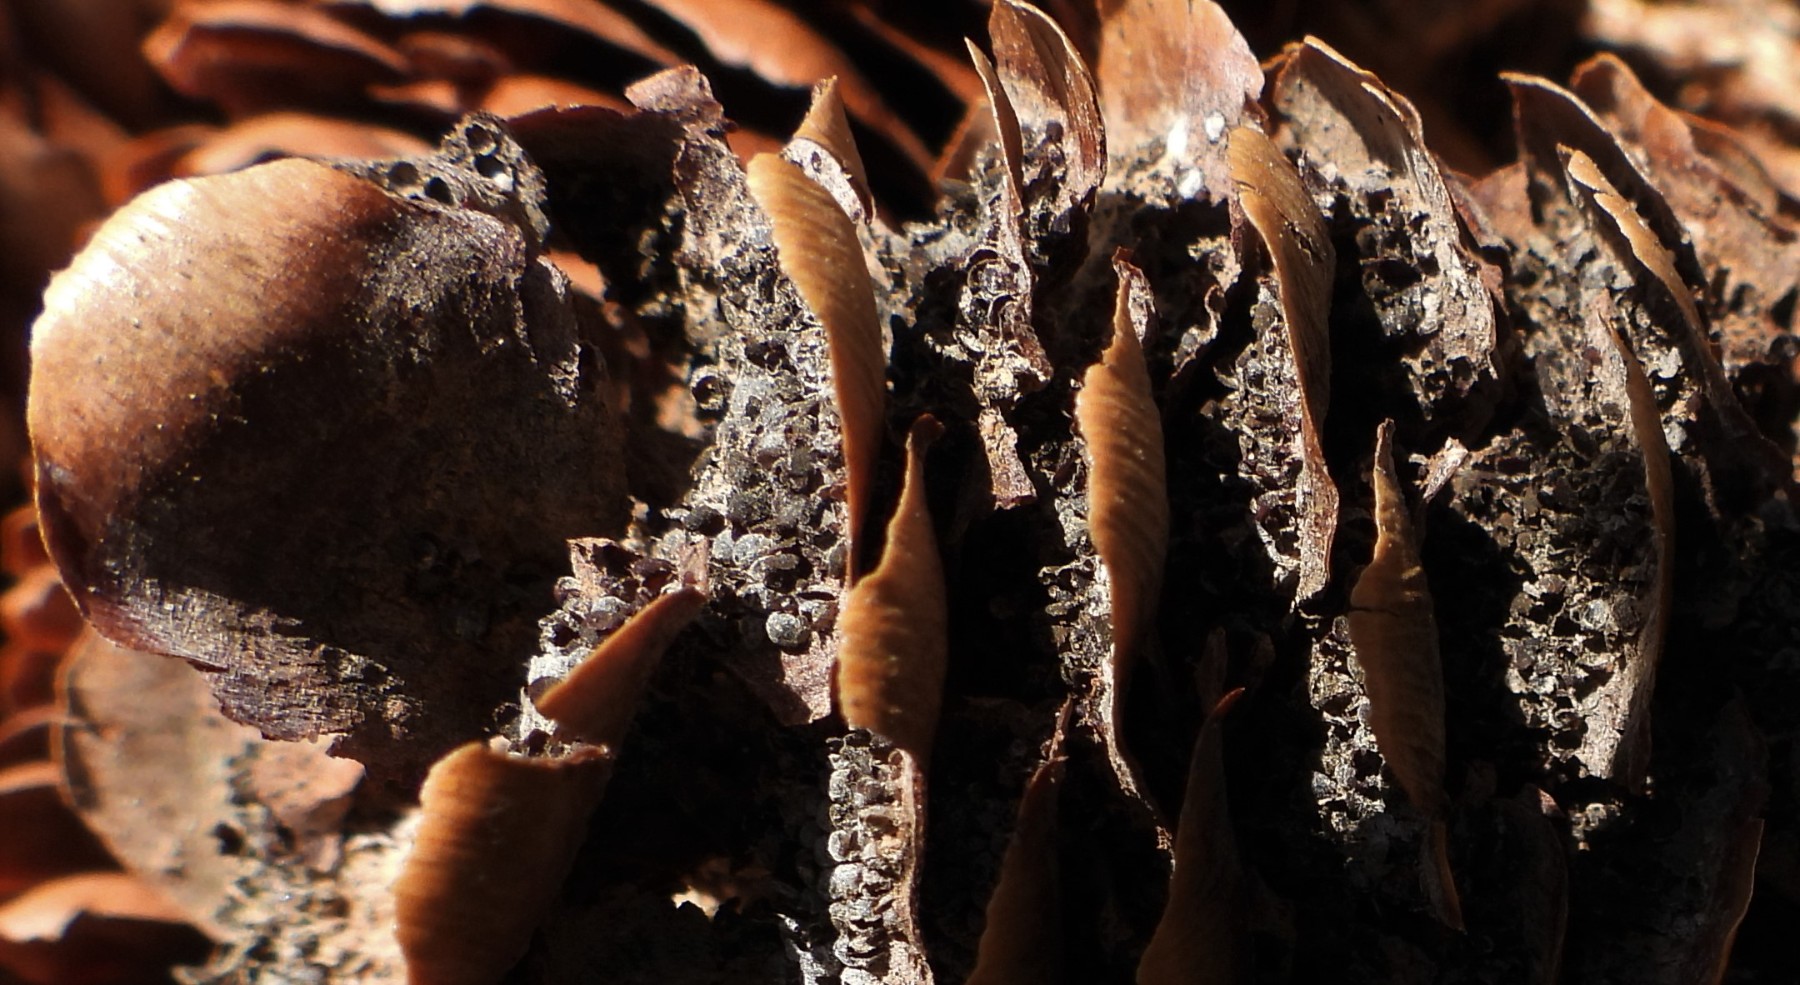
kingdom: Fungi
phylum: Basidiomycota
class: Pucciniomycetes
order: Pucciniales
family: Pucciniastraceae
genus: Thekopsora
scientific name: Thekopsora areolata
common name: grankogle-nålerust
